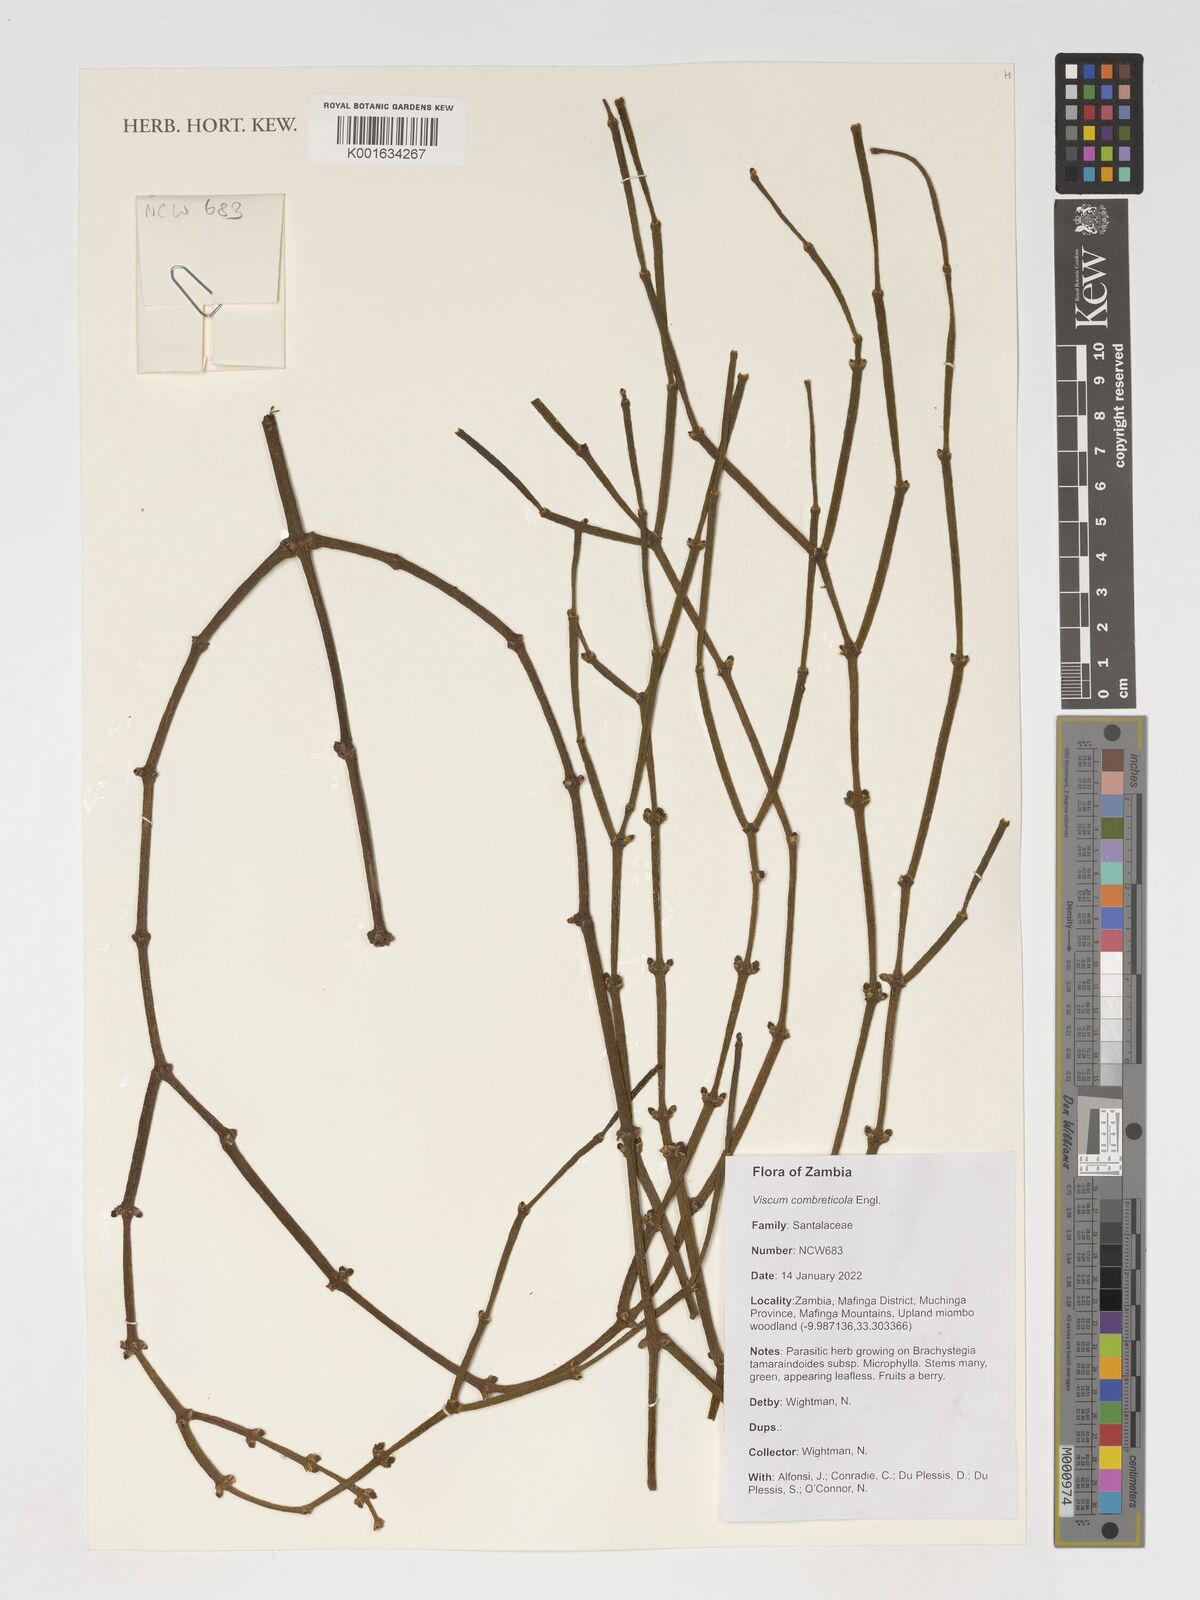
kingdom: Plantae
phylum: Tracheophyta
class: Magnoliopsida
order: Santalales
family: Viscaceae
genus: Viscum
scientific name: Viscum combreticola
